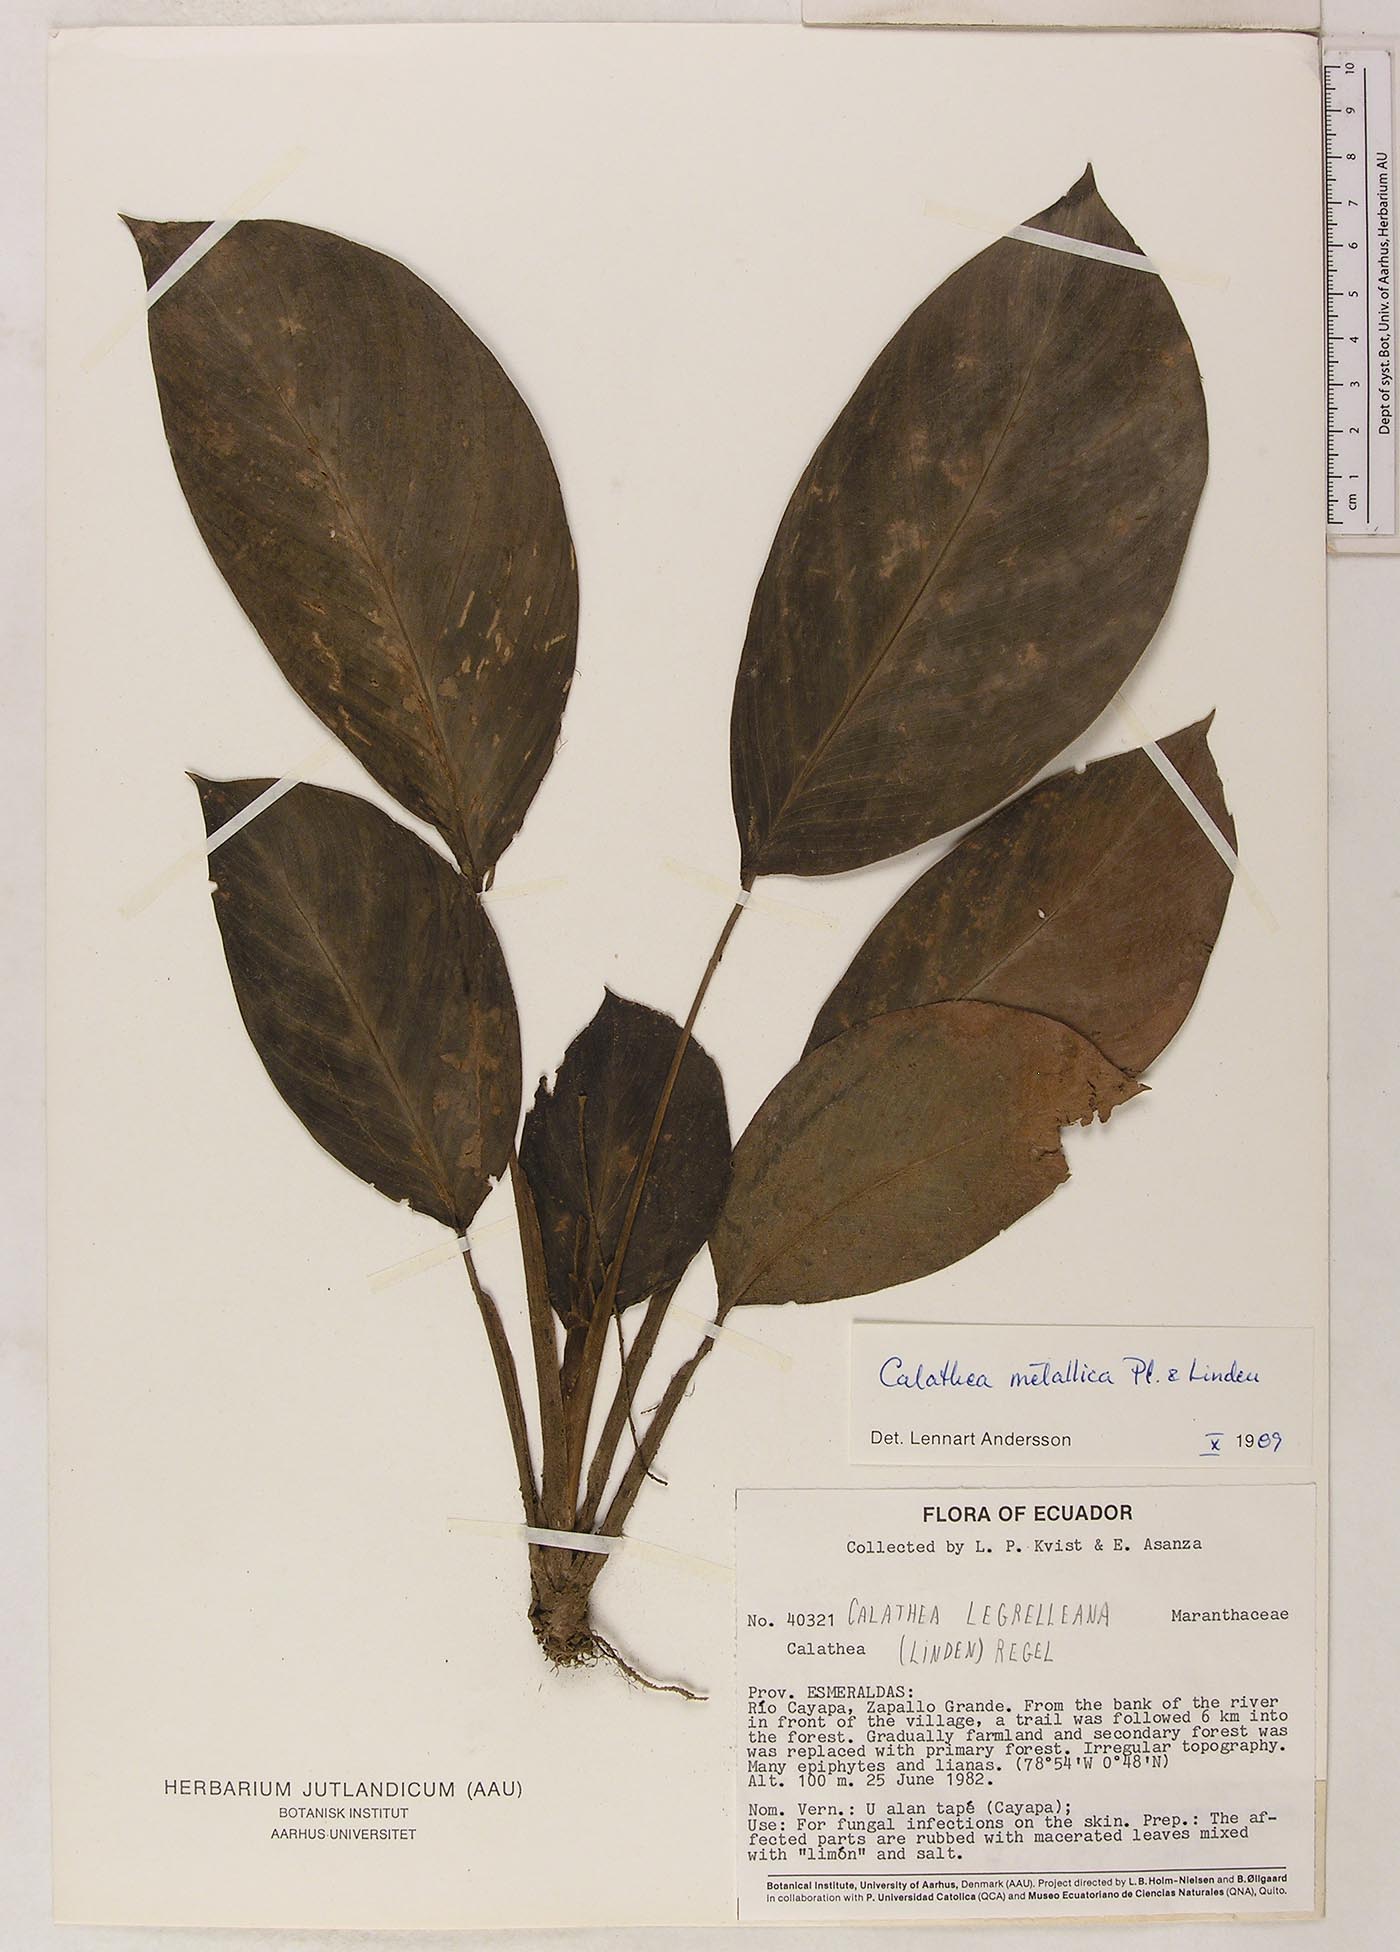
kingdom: Plantae
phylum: Tracheophyta
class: Liliopsida
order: Zingiberales
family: Marantaceae
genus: Goeppertia
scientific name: Goeppertia metallica
